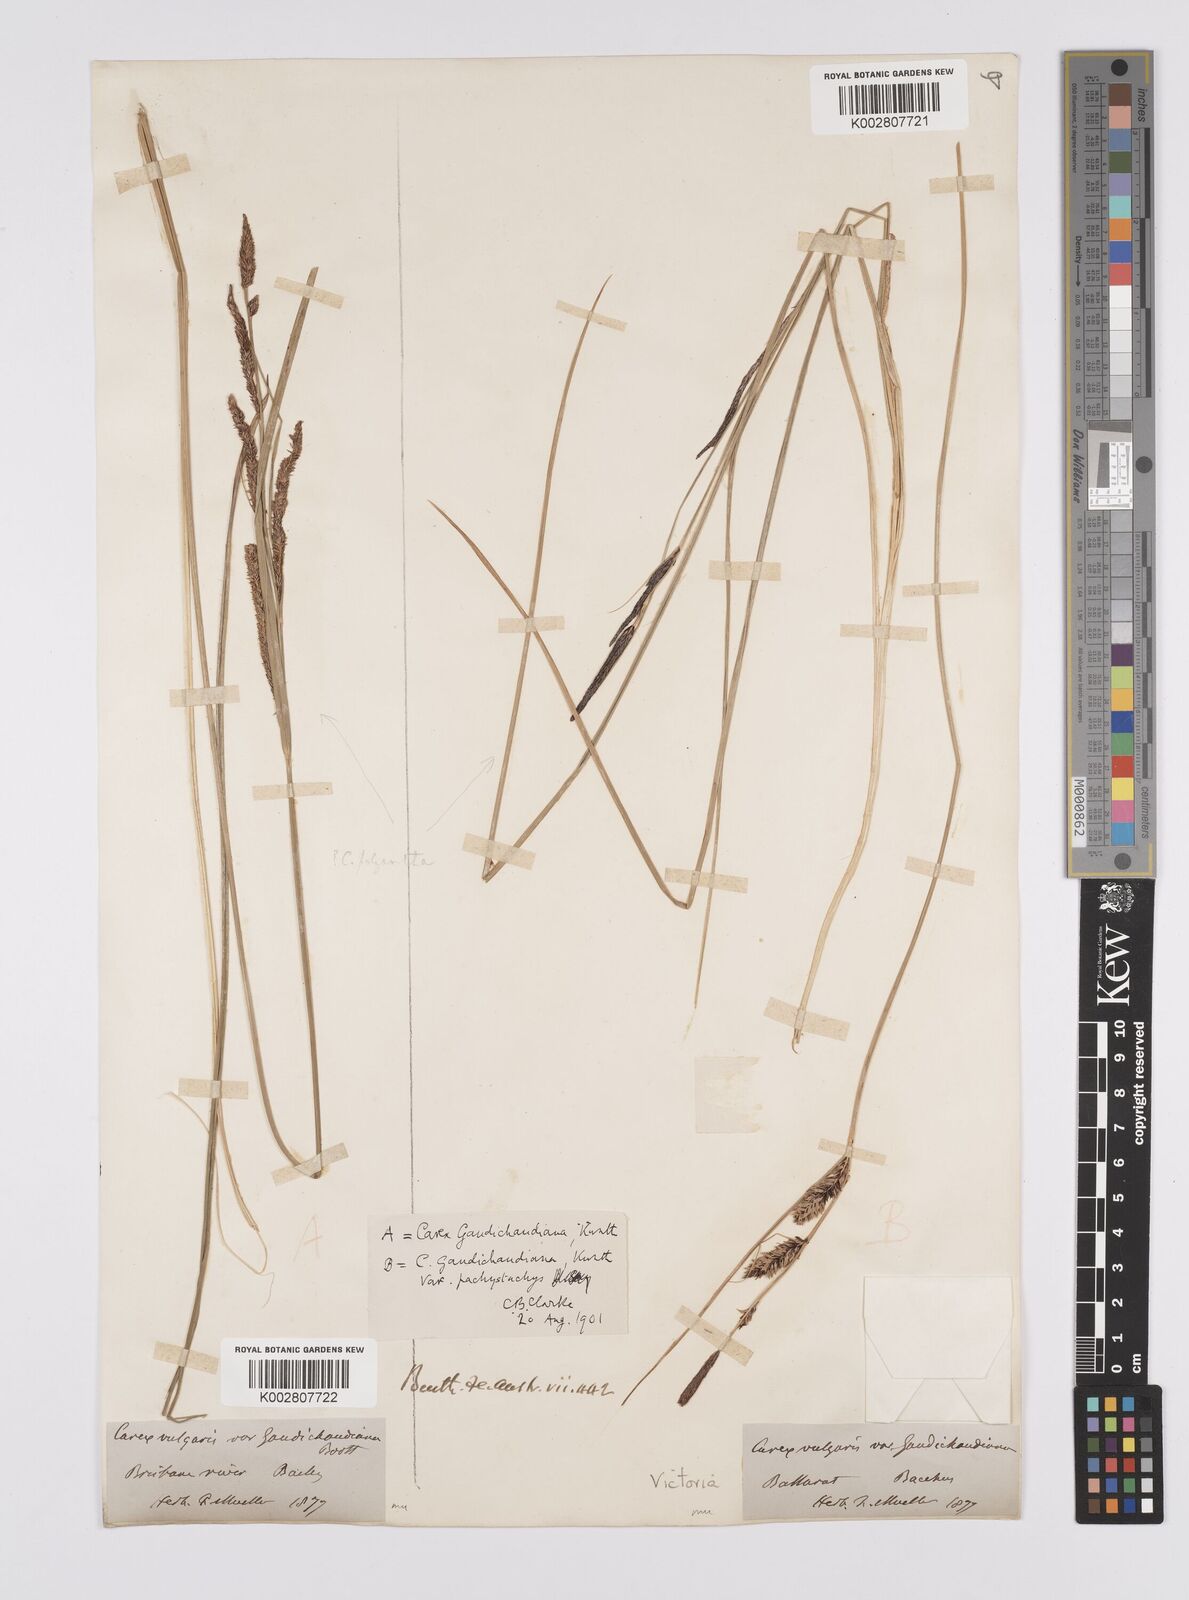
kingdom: Plantae
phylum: Tracheophyta
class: Liliopsida
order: Poales
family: Cyperaceae
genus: Carex
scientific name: Carex gaudichaudiana
